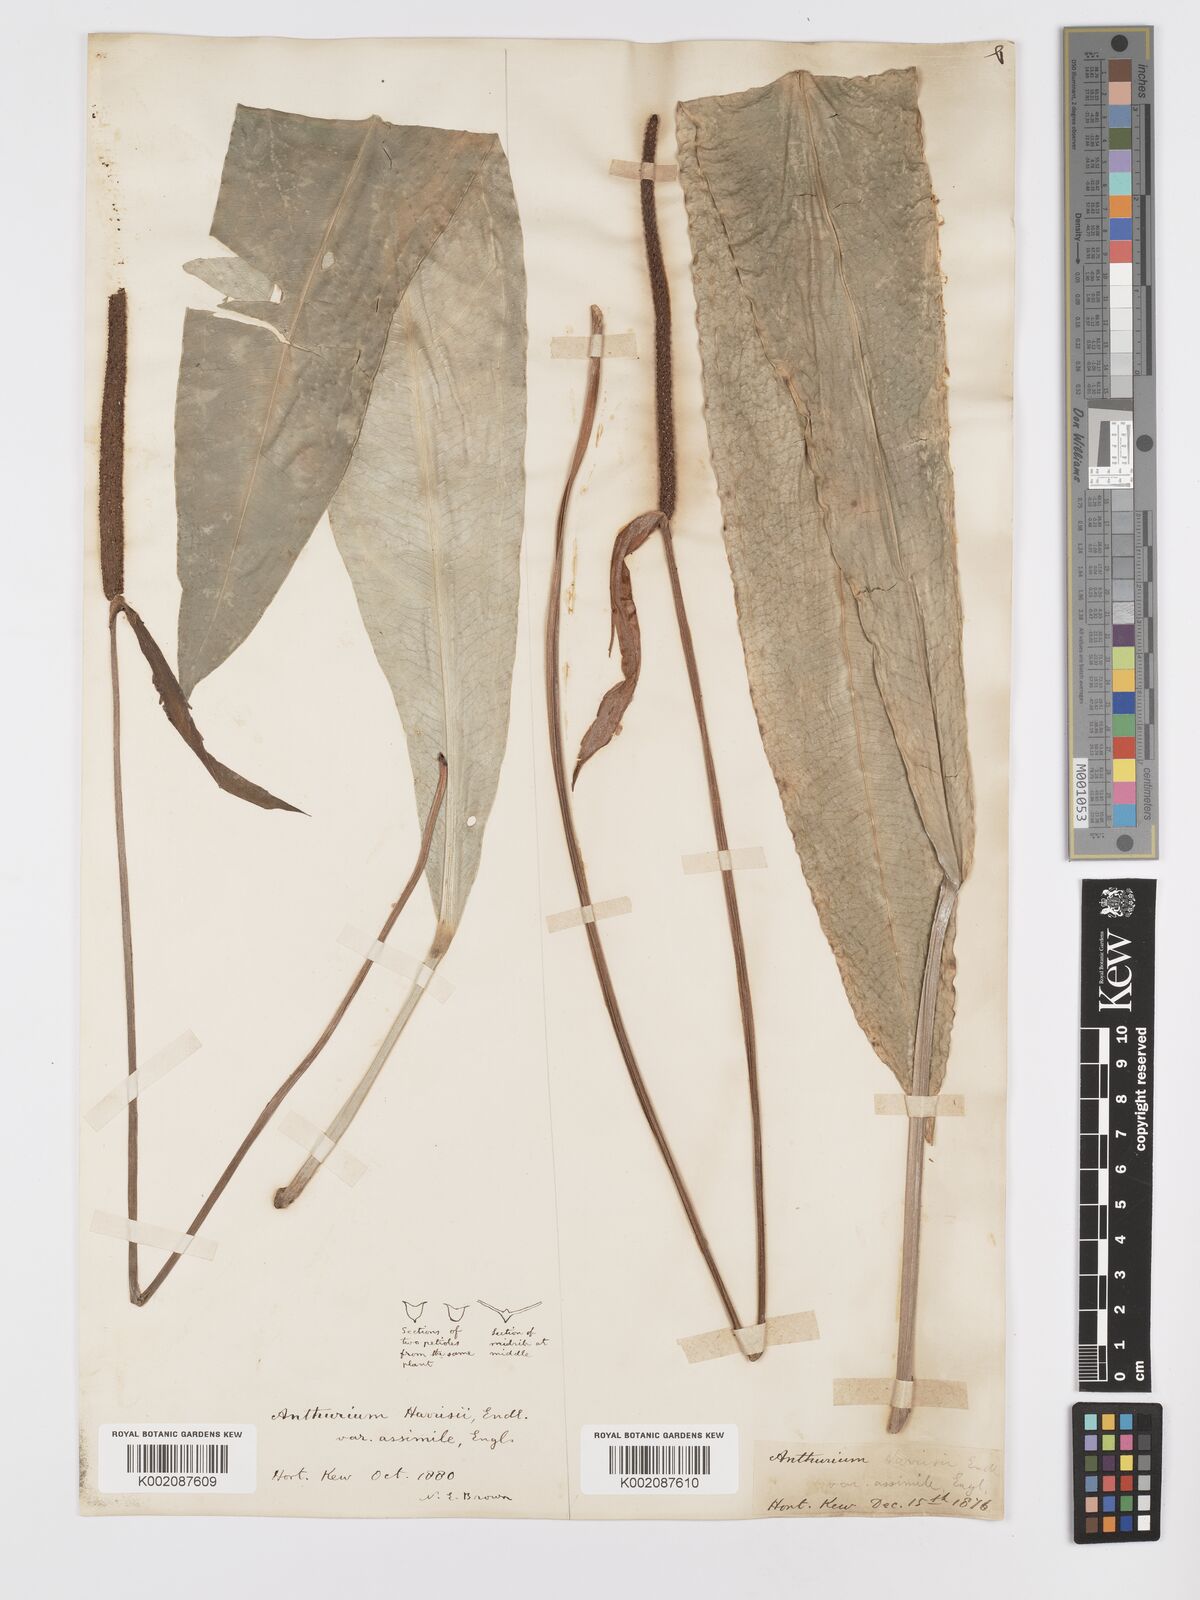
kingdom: Plantae
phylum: Tracheophyta
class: Liliopsida
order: Alismatales
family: Araceae
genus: Anthurium
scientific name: Anthurium harrisii
